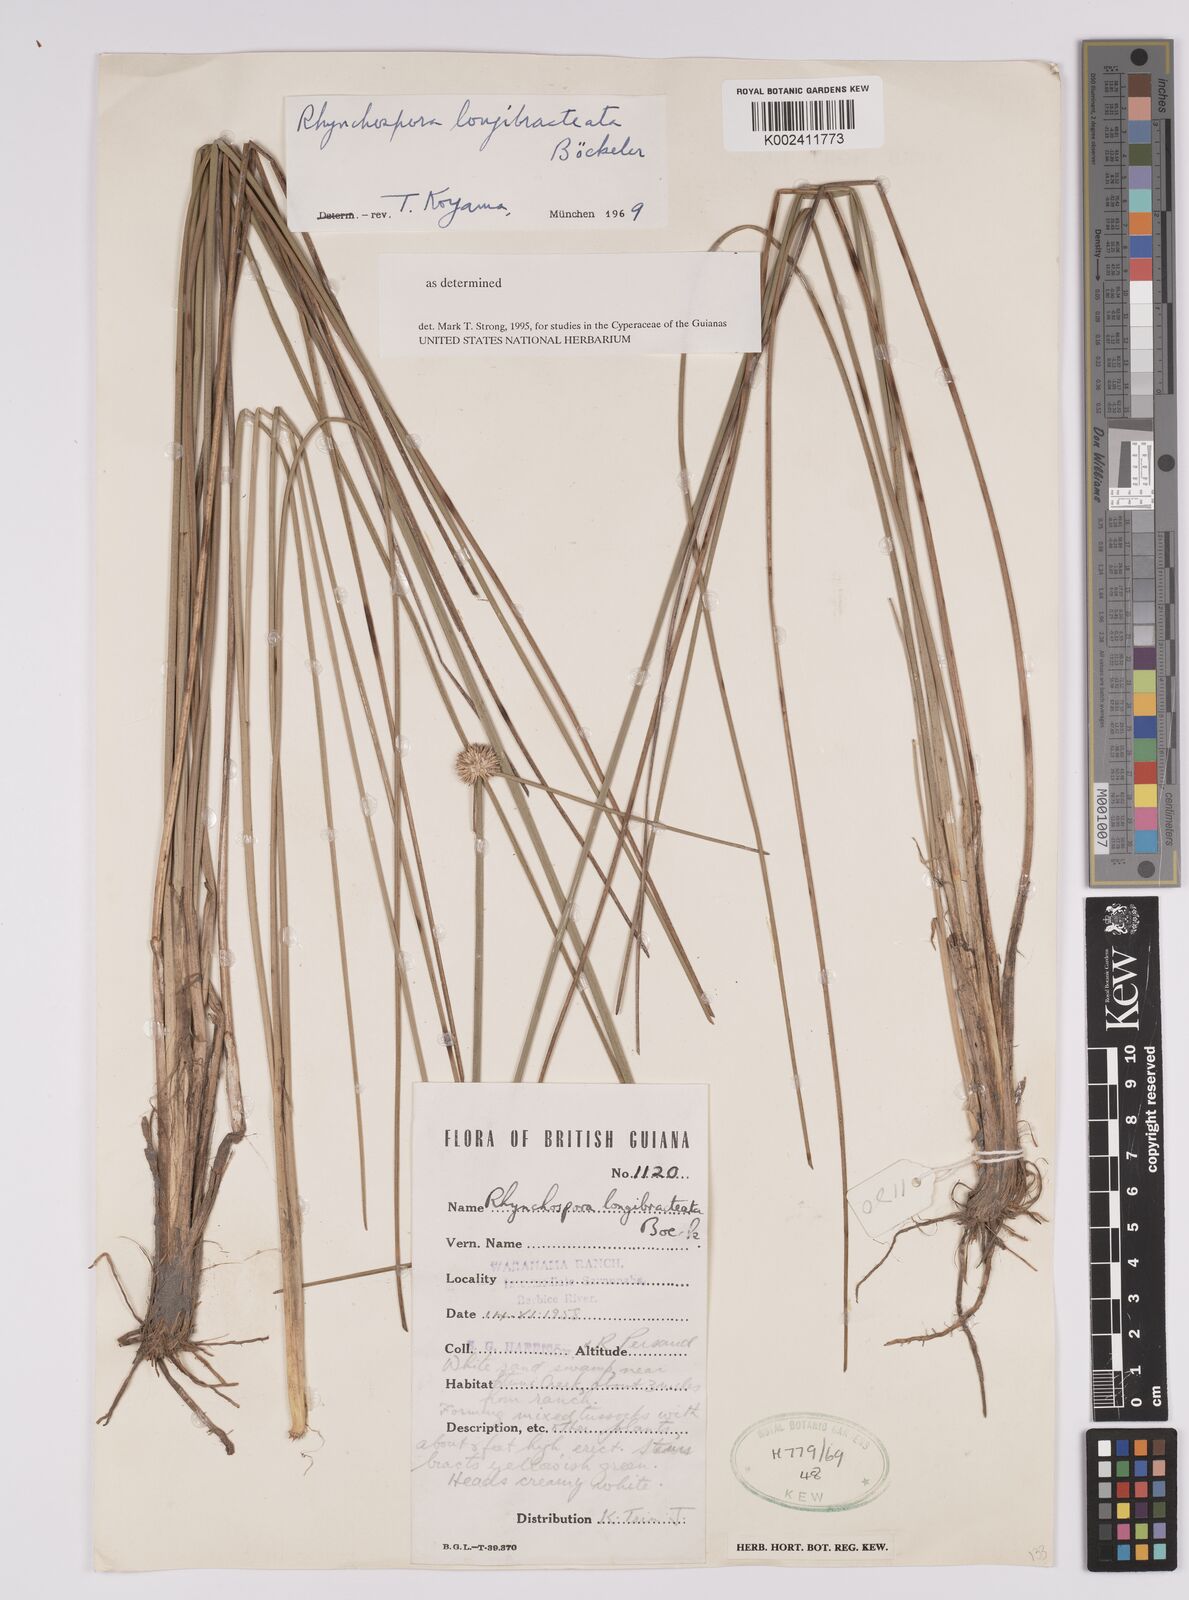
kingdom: Plantae
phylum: Tracheophyta
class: Liliopsida
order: Poales
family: Cyperaceae
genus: Rhynchospora
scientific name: Rhynchospora longibracteata
